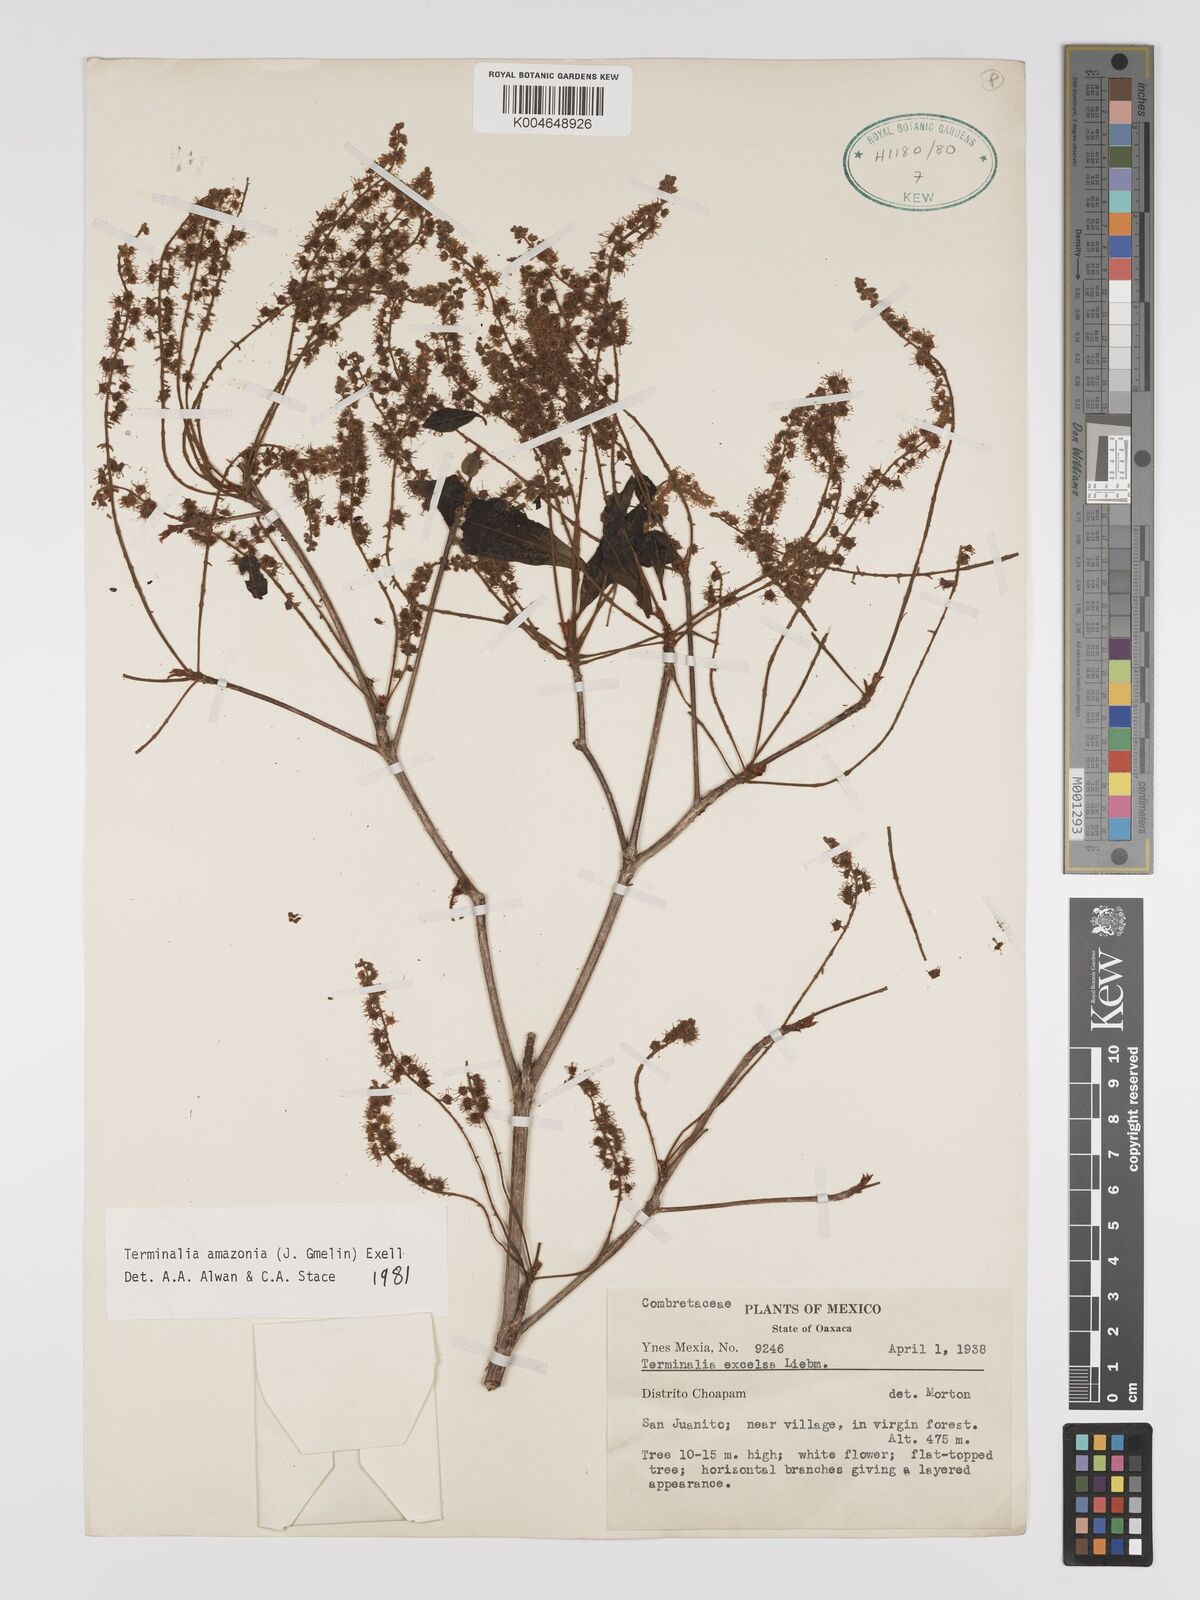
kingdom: Plantae
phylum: Tracheophyta
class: Magnoliopsida
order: Myrtales
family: Combretaceae
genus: Terminalia
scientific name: Terminalia amazonica
